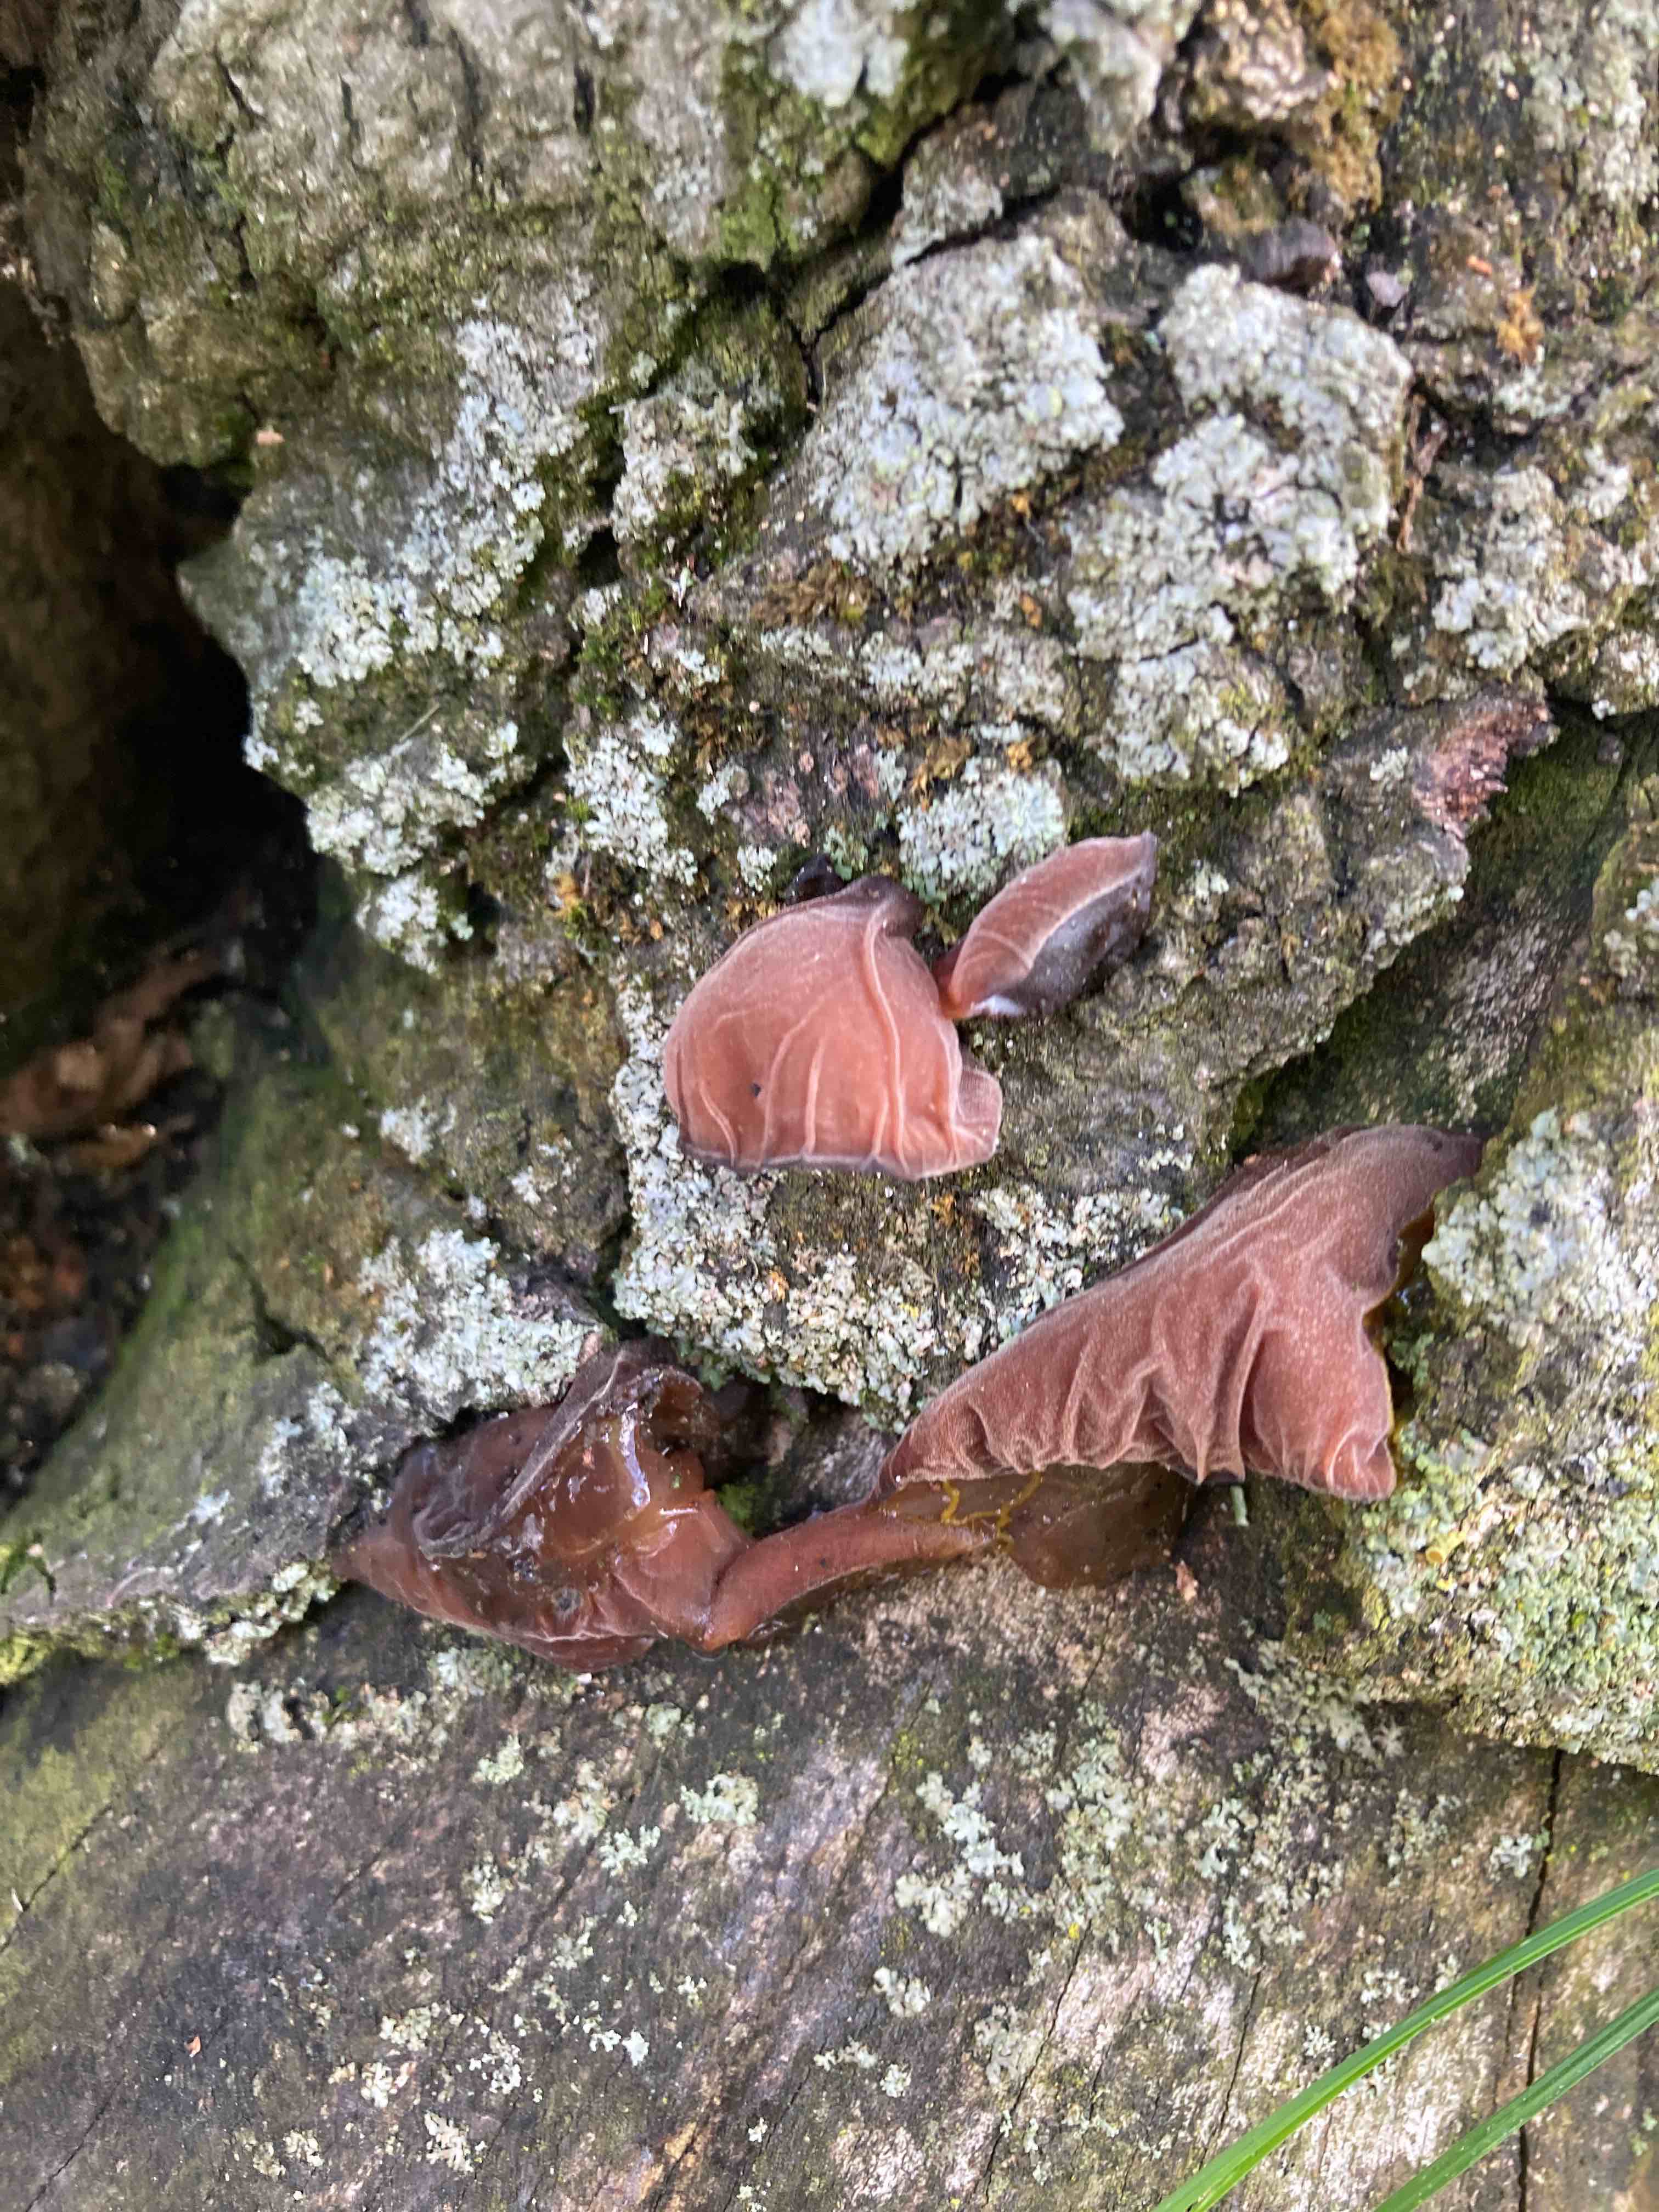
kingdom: Fungi
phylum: Basidiomycota
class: Agaricomycetes
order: Auriculariales
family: Auriculariaceae
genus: Auricularia
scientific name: Auricularia auricula-judae
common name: almindelig judasøre
